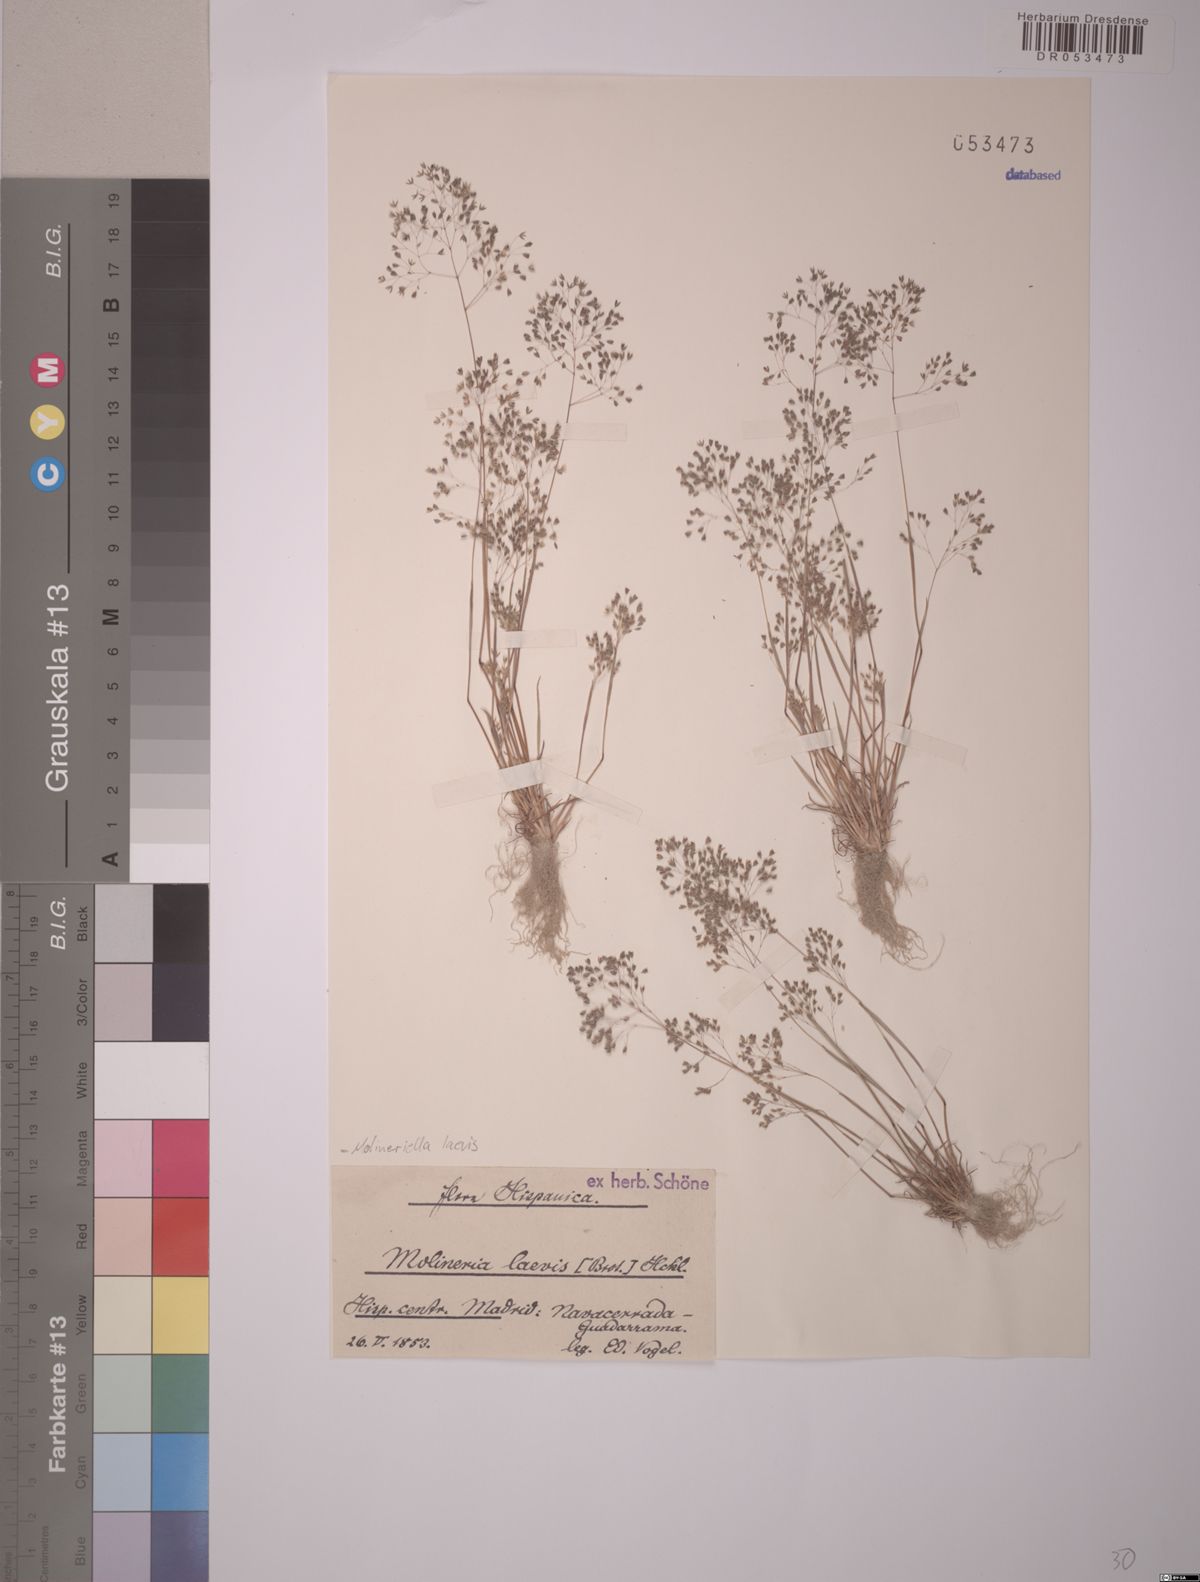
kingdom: Plantae
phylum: Tracheophyta
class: Liliopsida
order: Poales
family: Poaceae
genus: Molineriella
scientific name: Molineriella laevis
